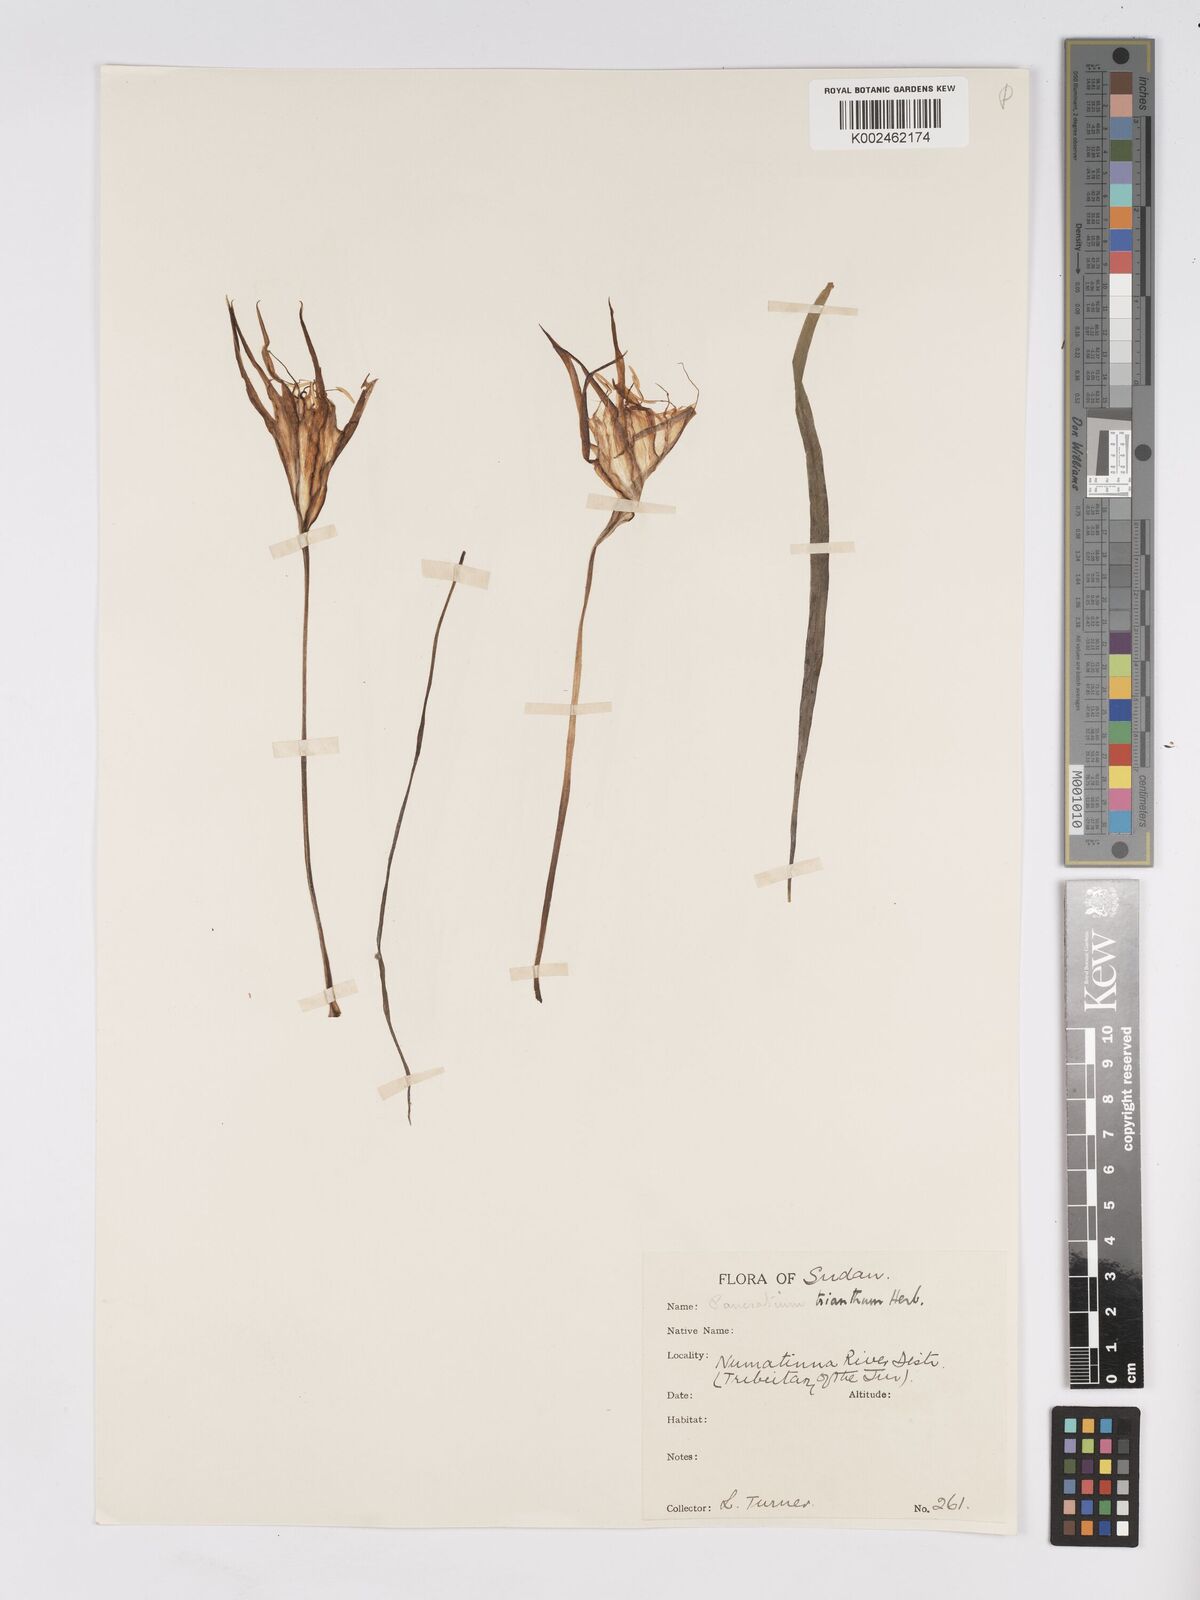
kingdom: Plantae
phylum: Tracheophyta
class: Liliopsida
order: Asparagales
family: Amaryllidaceae
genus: Pancratium
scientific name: Pancratium trianthum
